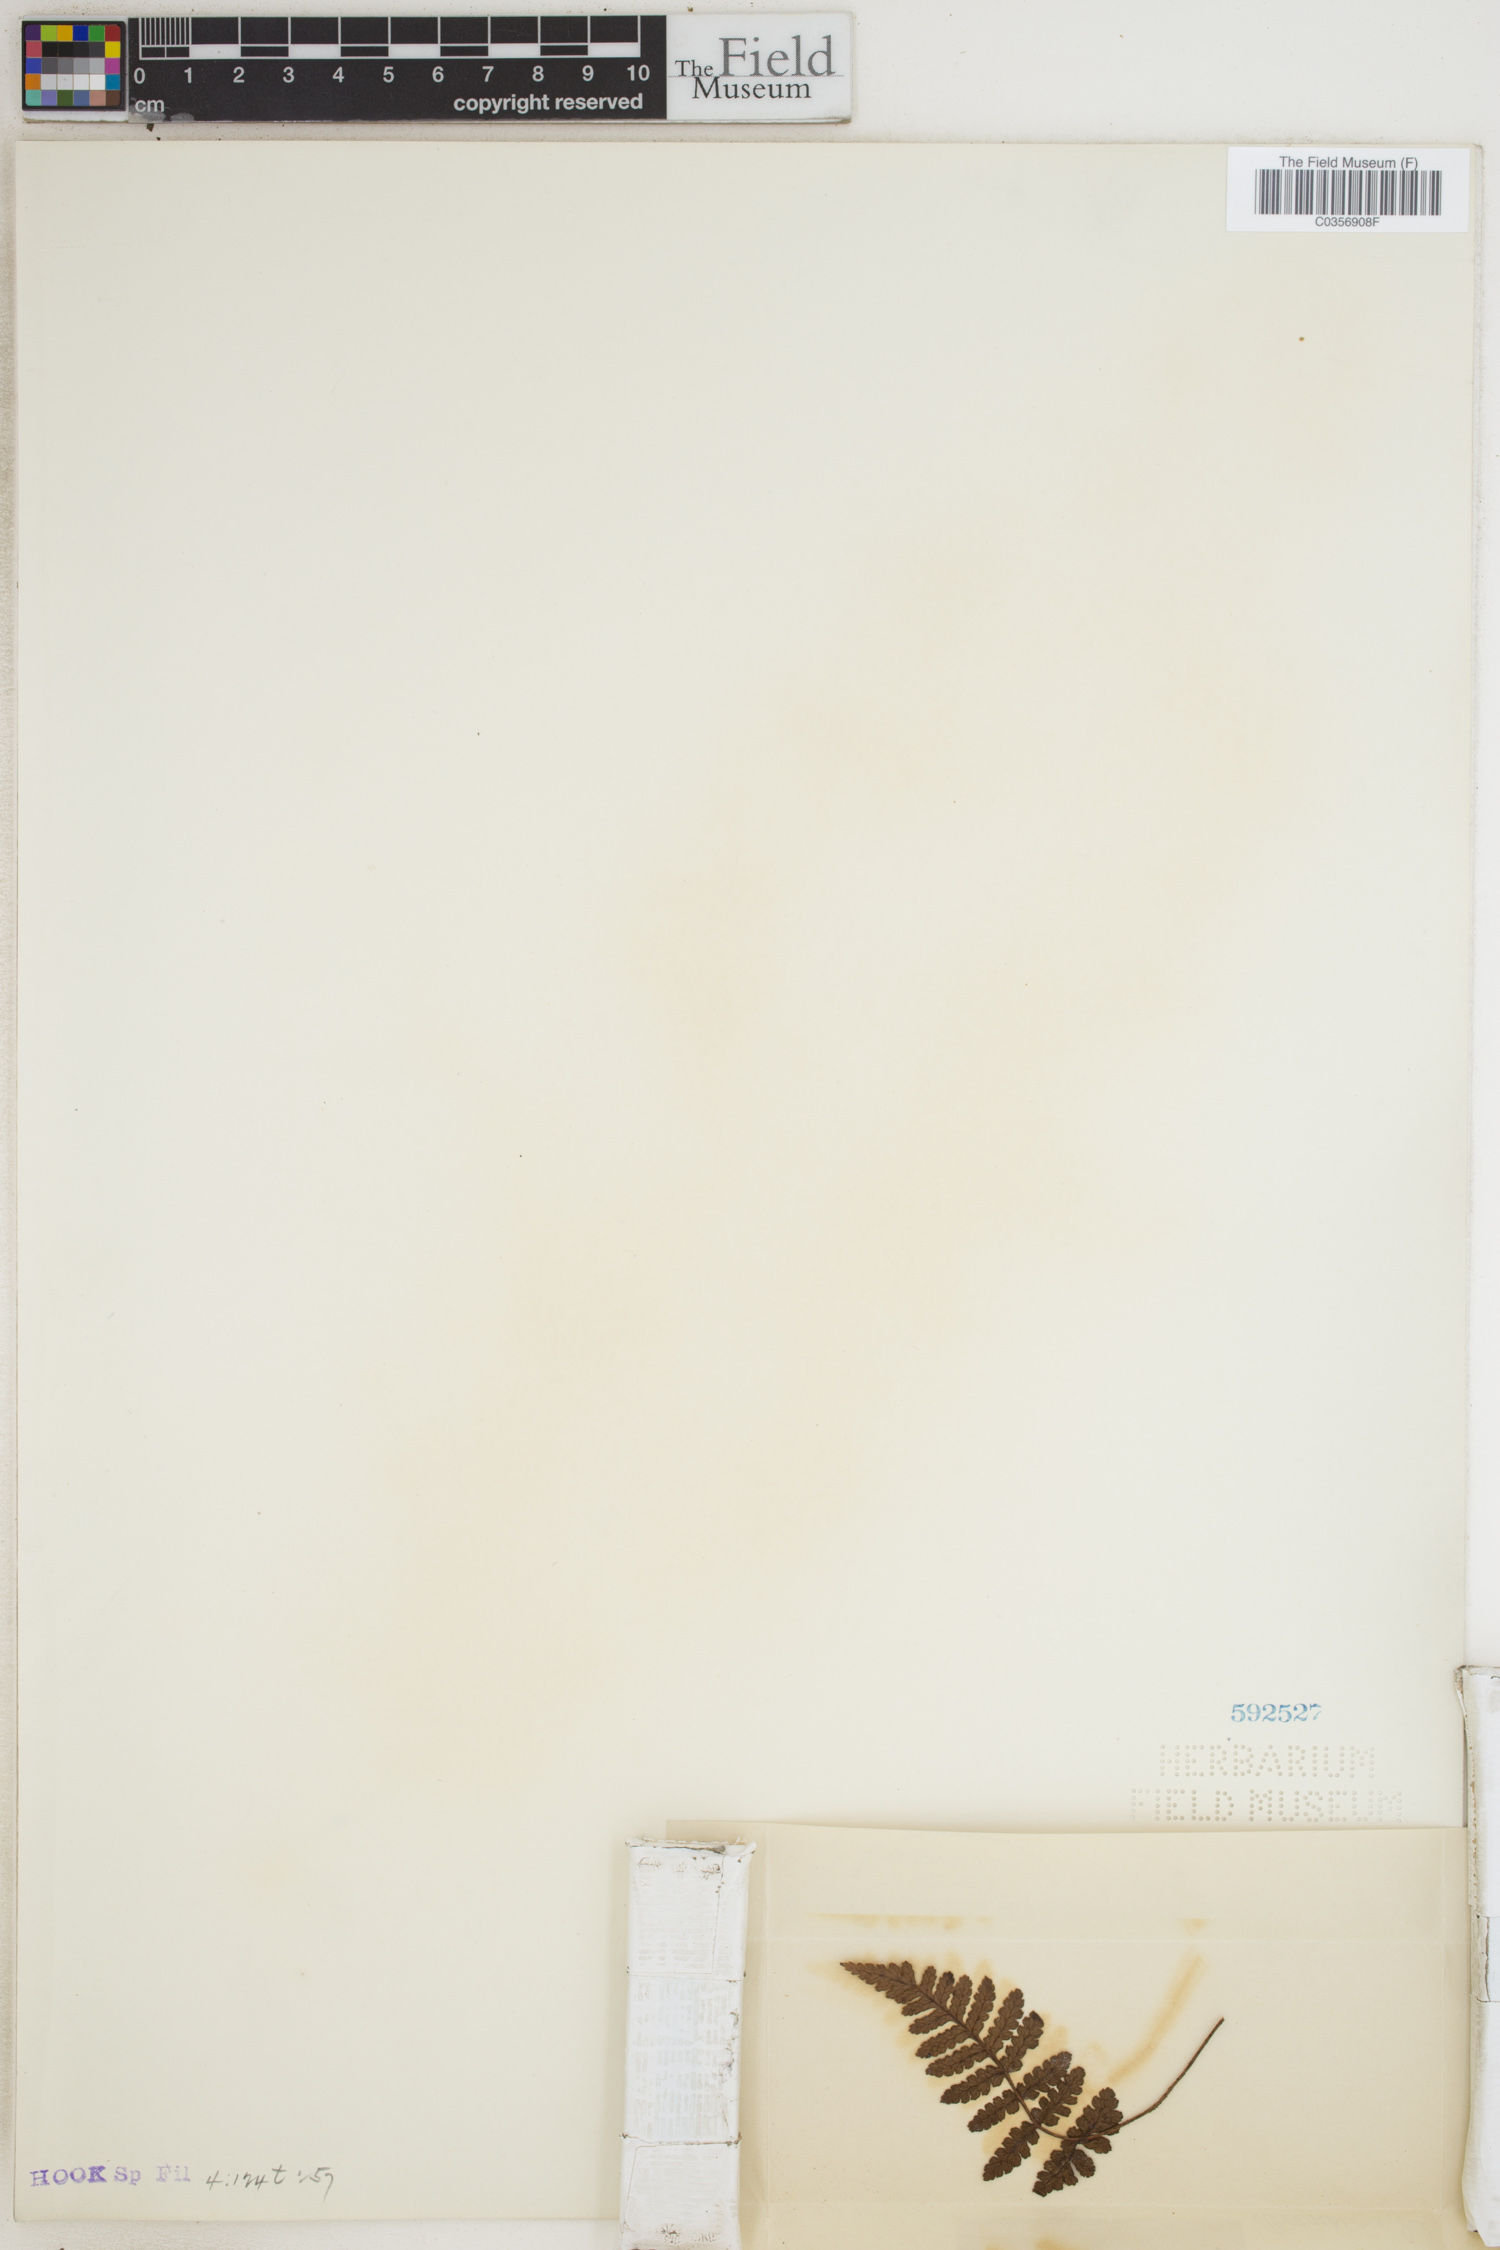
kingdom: Plantae
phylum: Tracheophyta
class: Polypodiopsida
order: Polypodiales
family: Dryopteridaceae
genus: Dryopteris
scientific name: Dryopteris ascensionis
